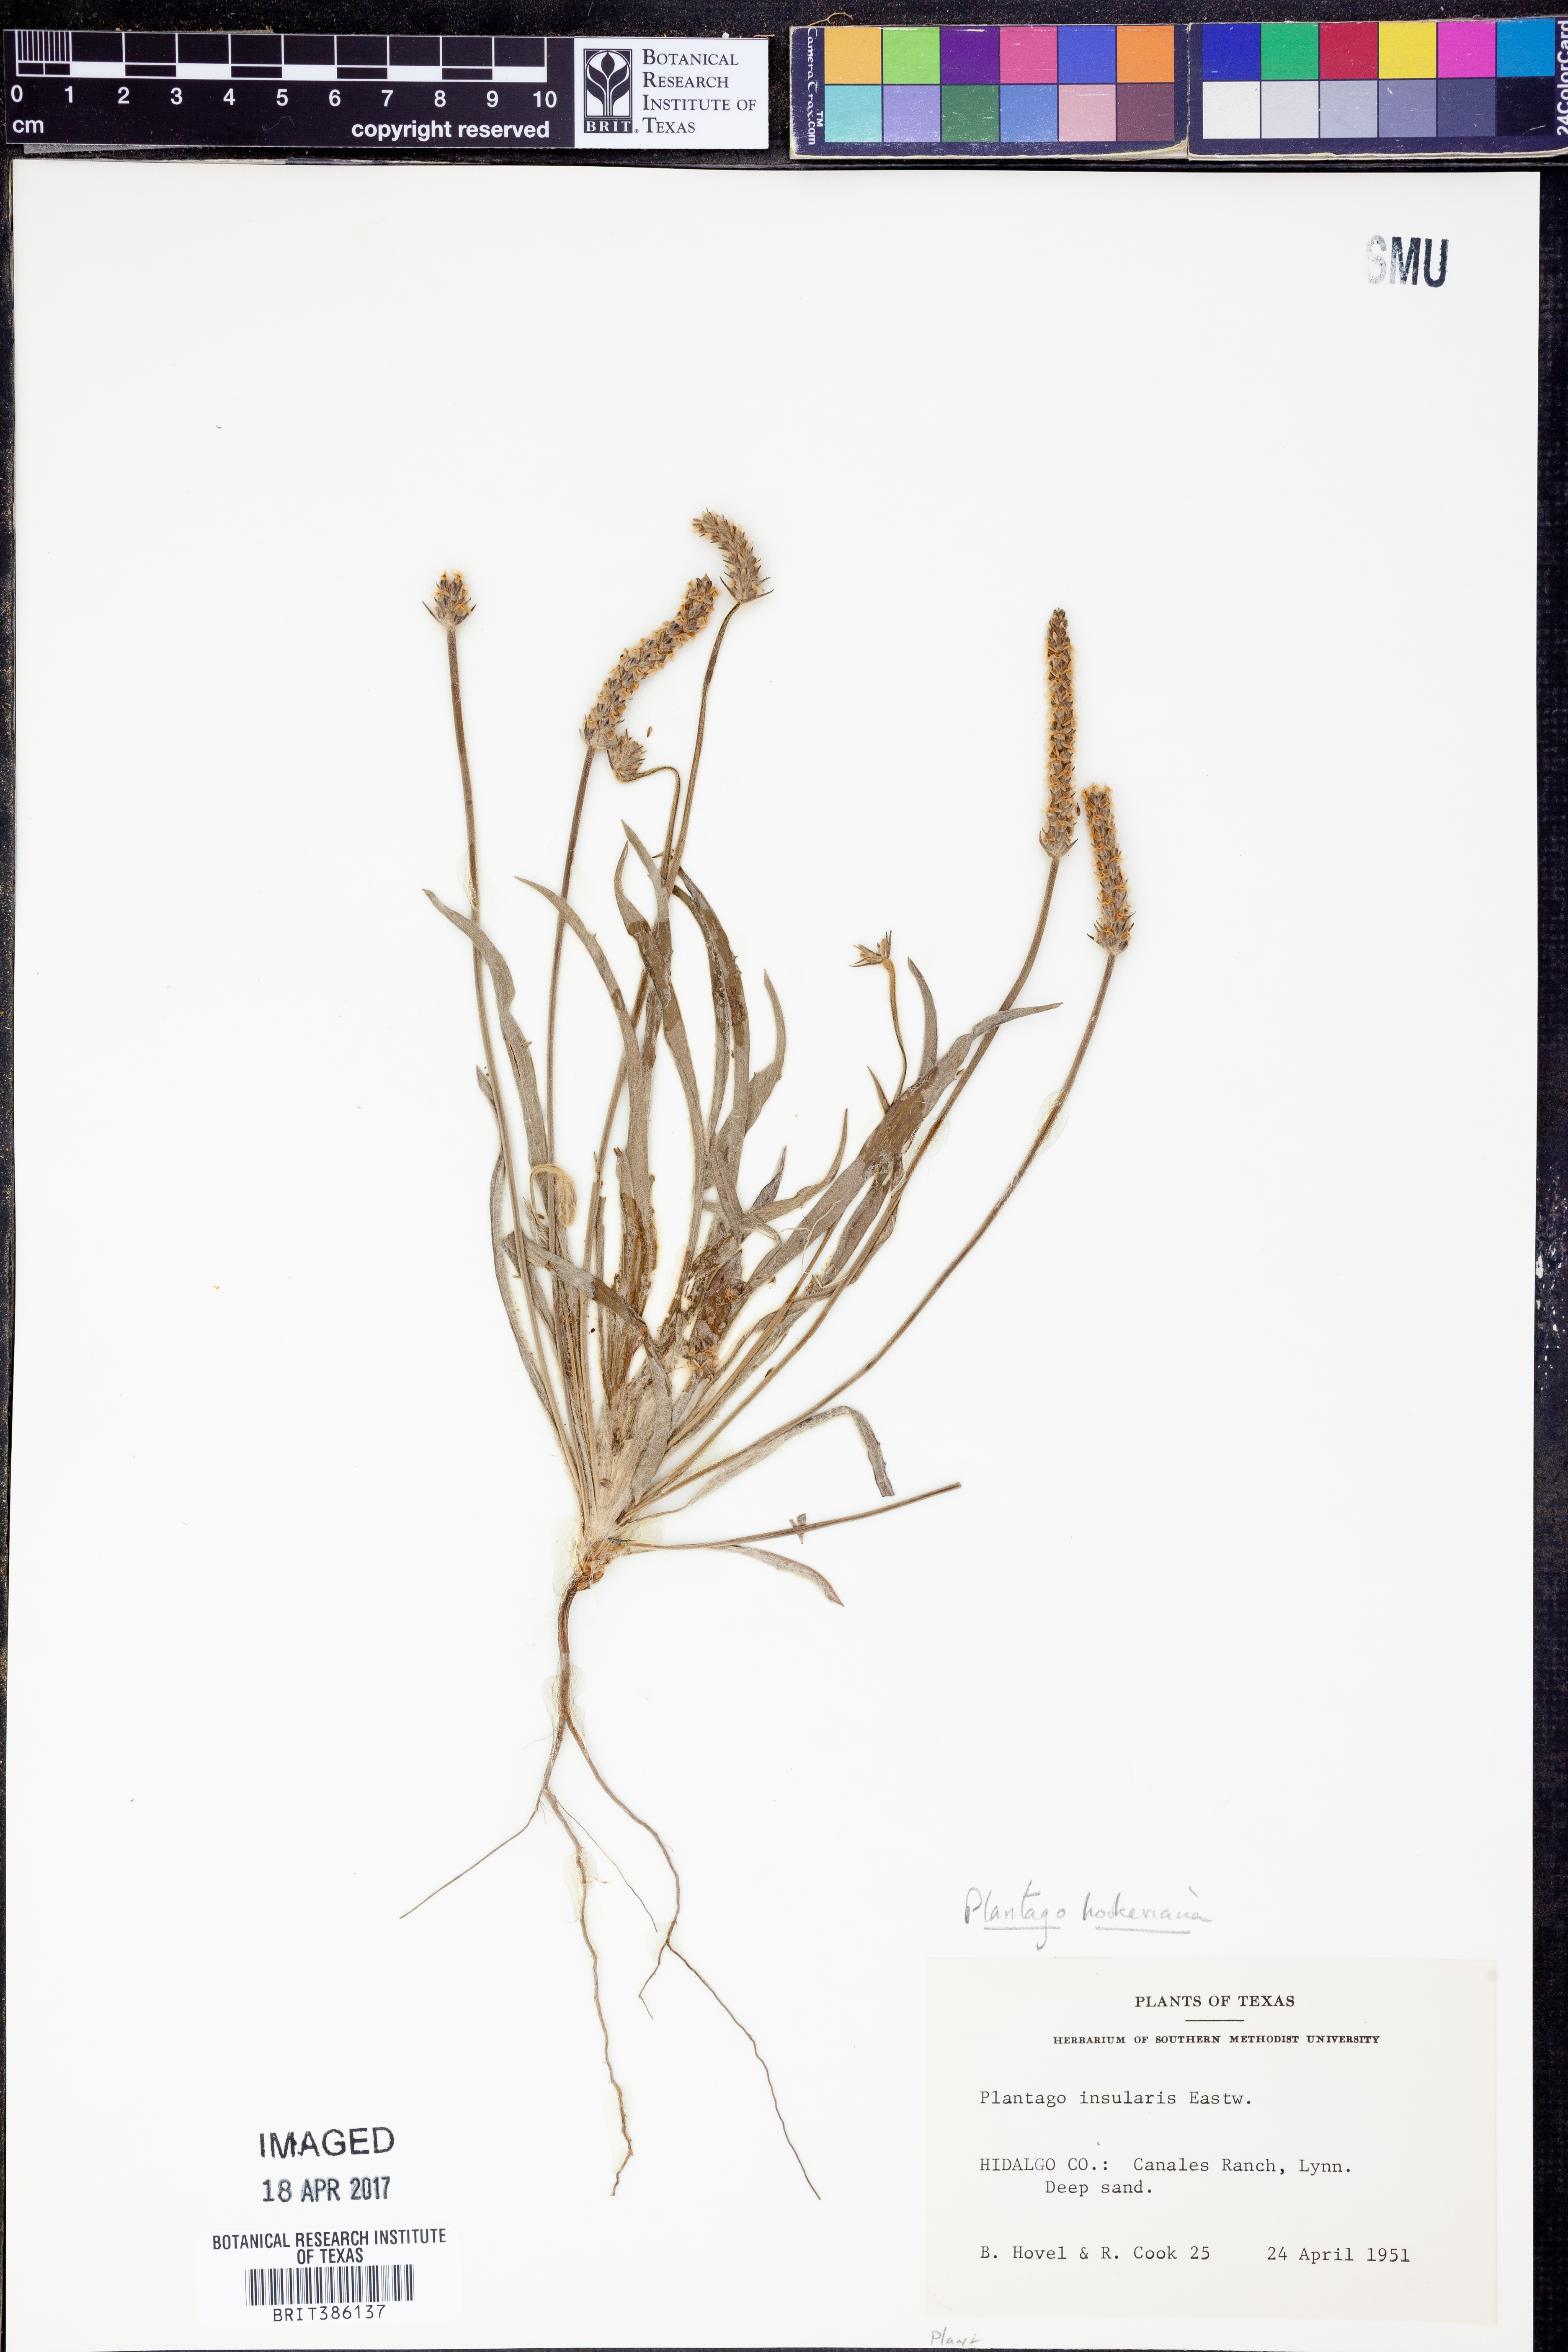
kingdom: Plantae
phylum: Tracheophyta
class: Magnoliopsida
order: Lamiales
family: Plantaginaceae
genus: Plantago
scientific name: Plantago hookeriana
